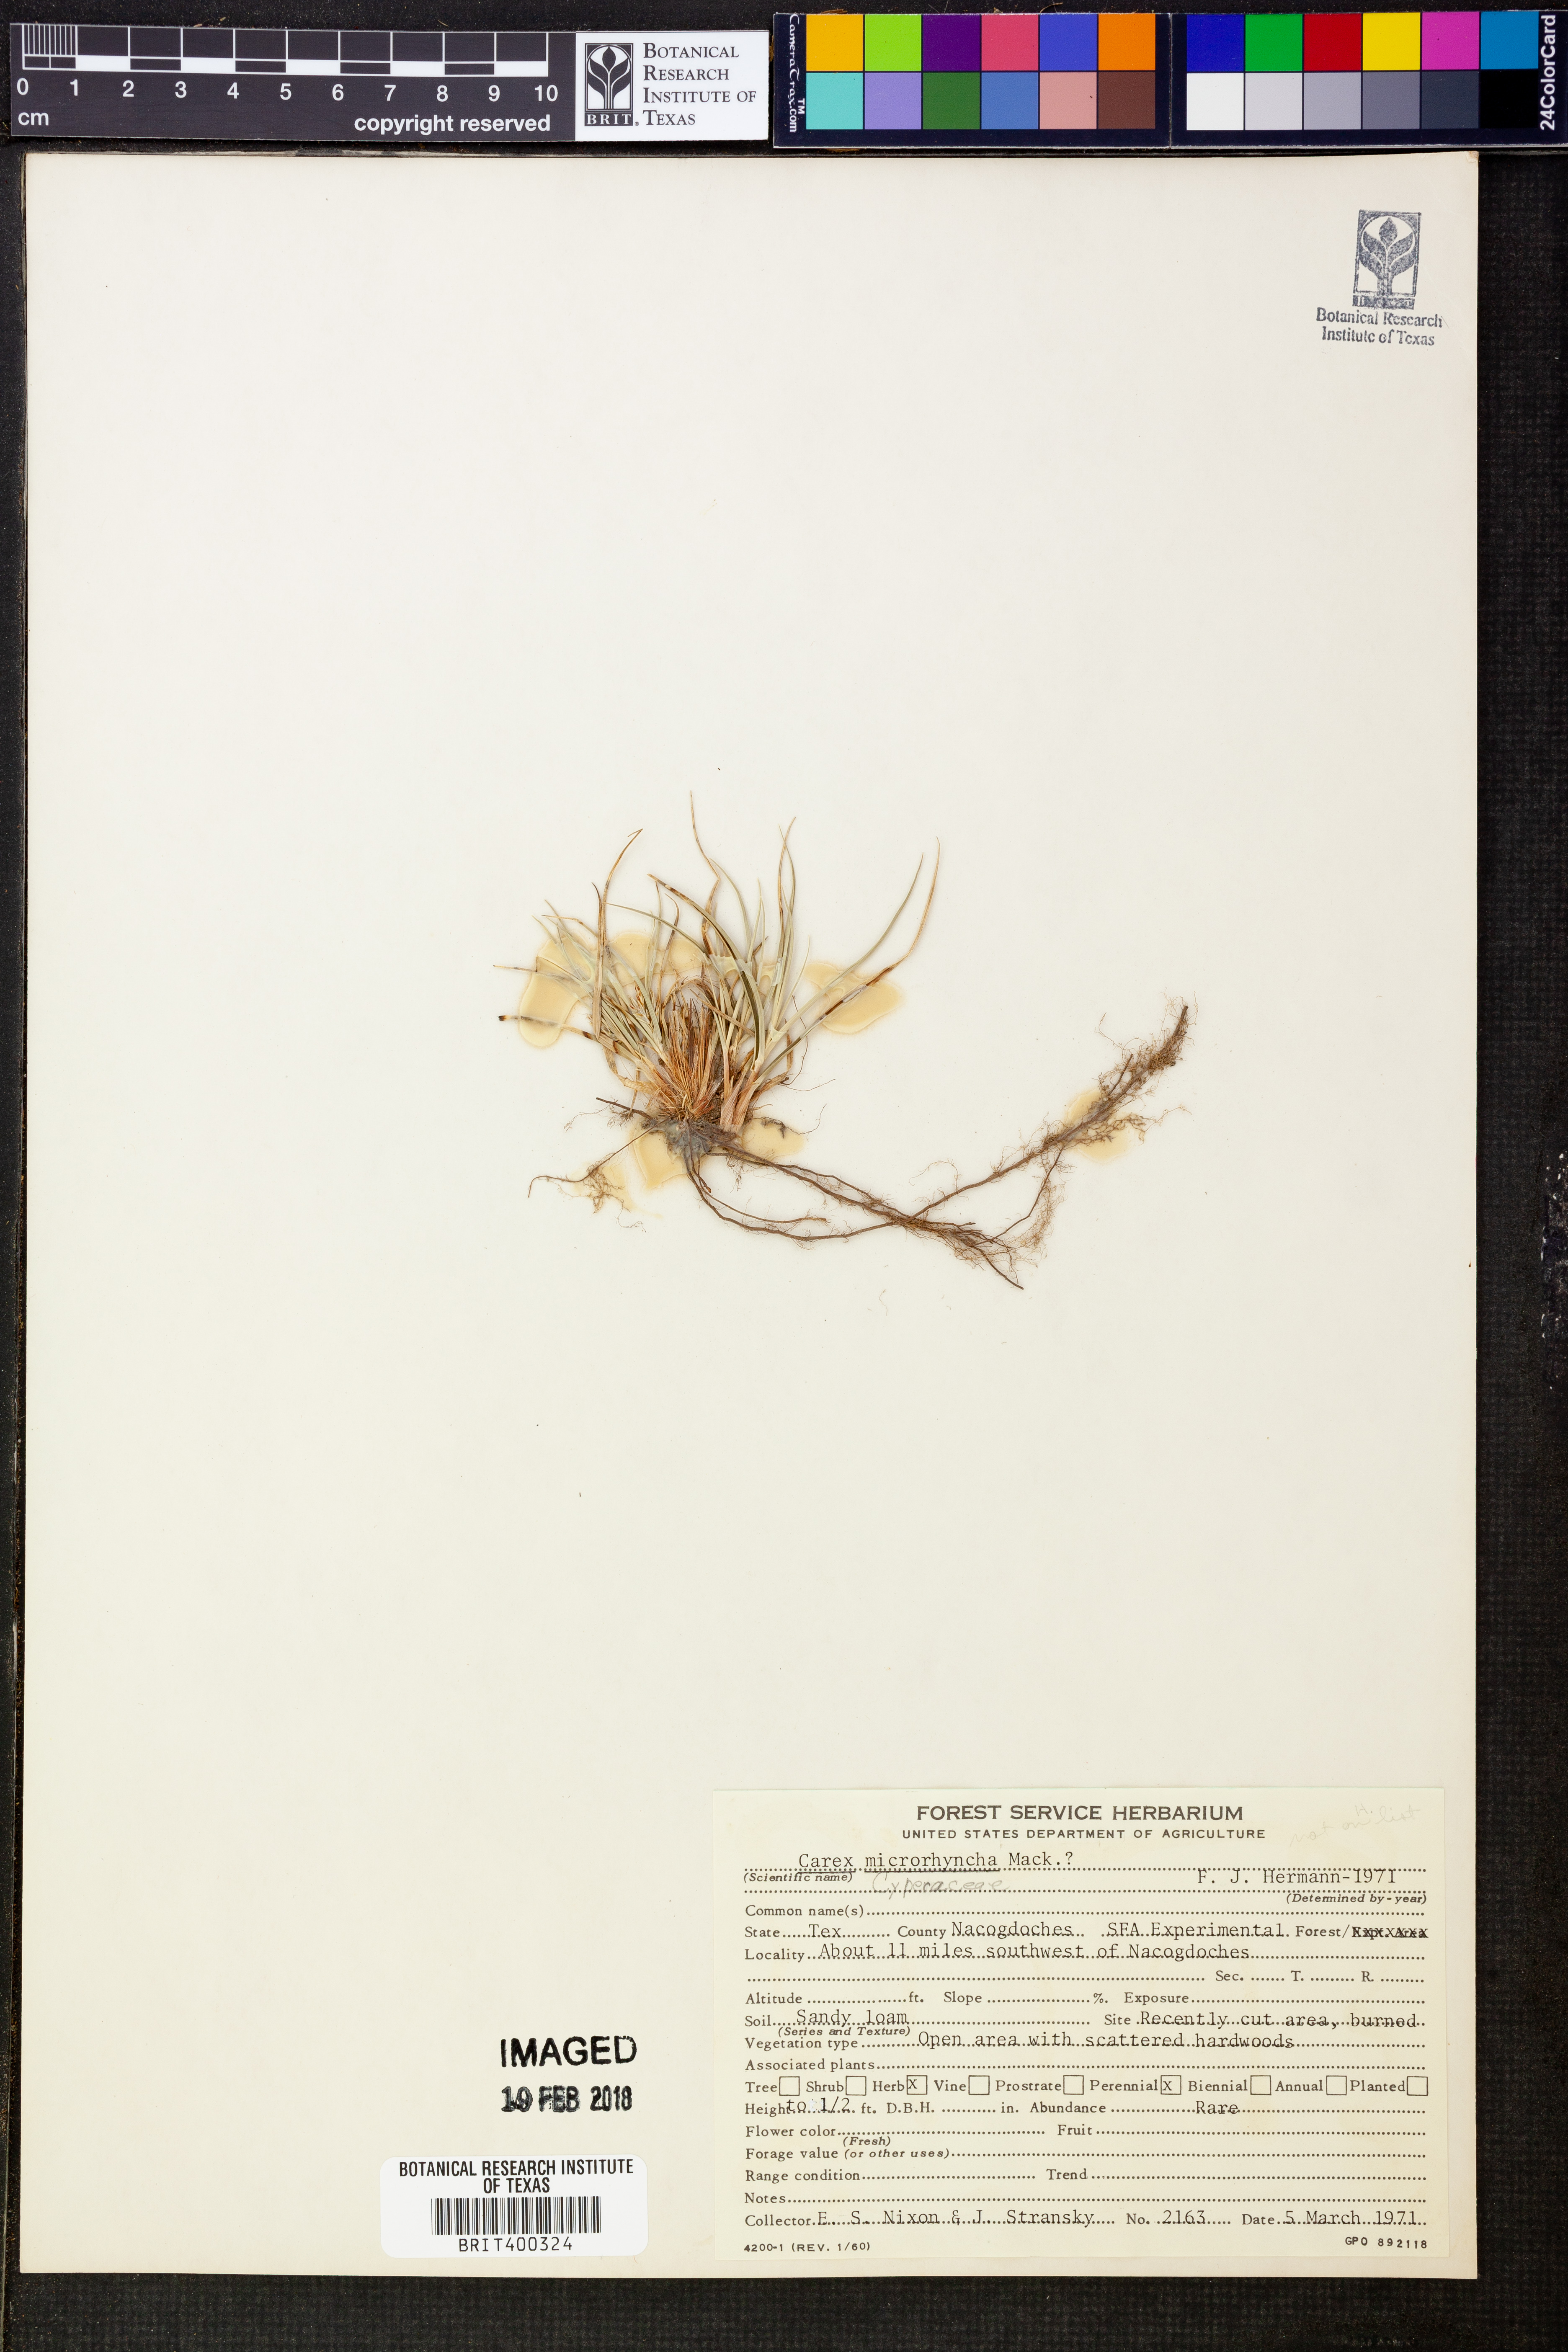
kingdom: Plantae
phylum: Tracheophyta
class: Liliopsida
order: Poales
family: Cyperaceae
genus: Carex
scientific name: Carex microrhyncha
